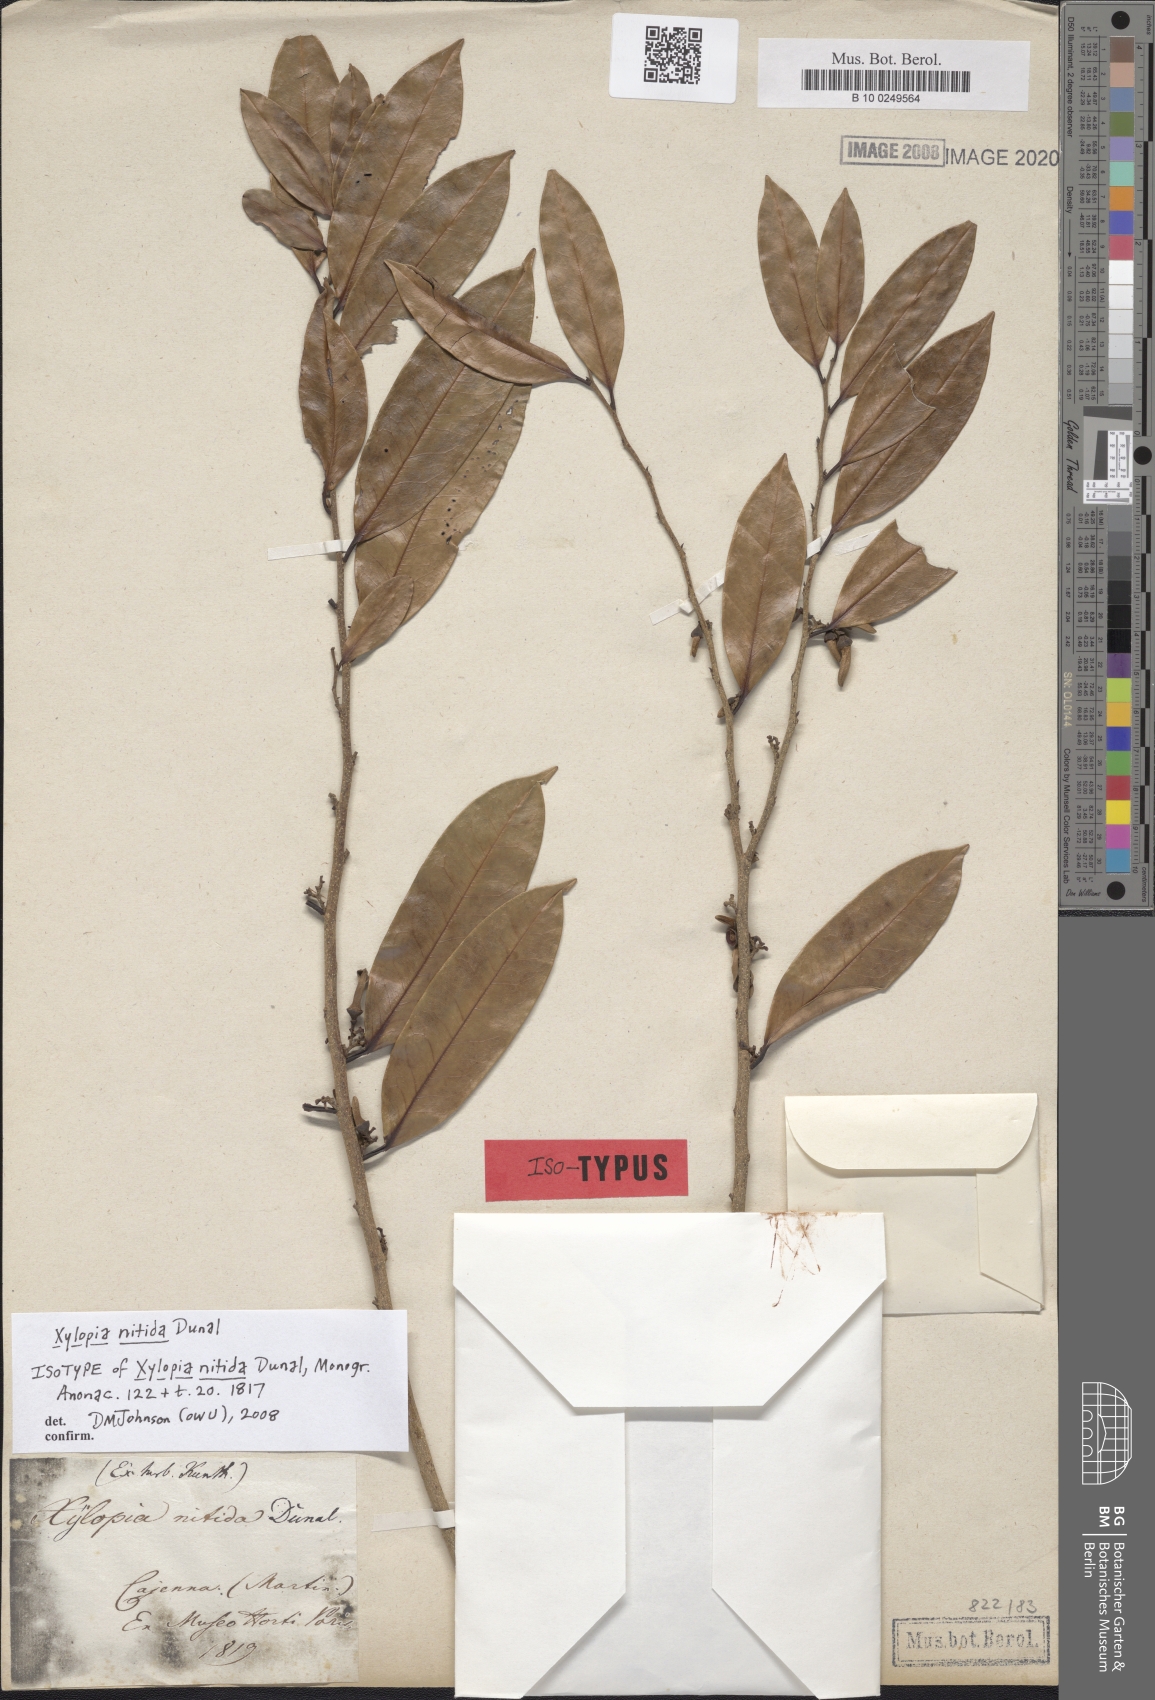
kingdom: Plantae
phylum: Tracheophyta
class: Magnoliopsida
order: Magnoliales
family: Annonaceae
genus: Xylopia
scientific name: Xylopia nitida
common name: White kuyama
